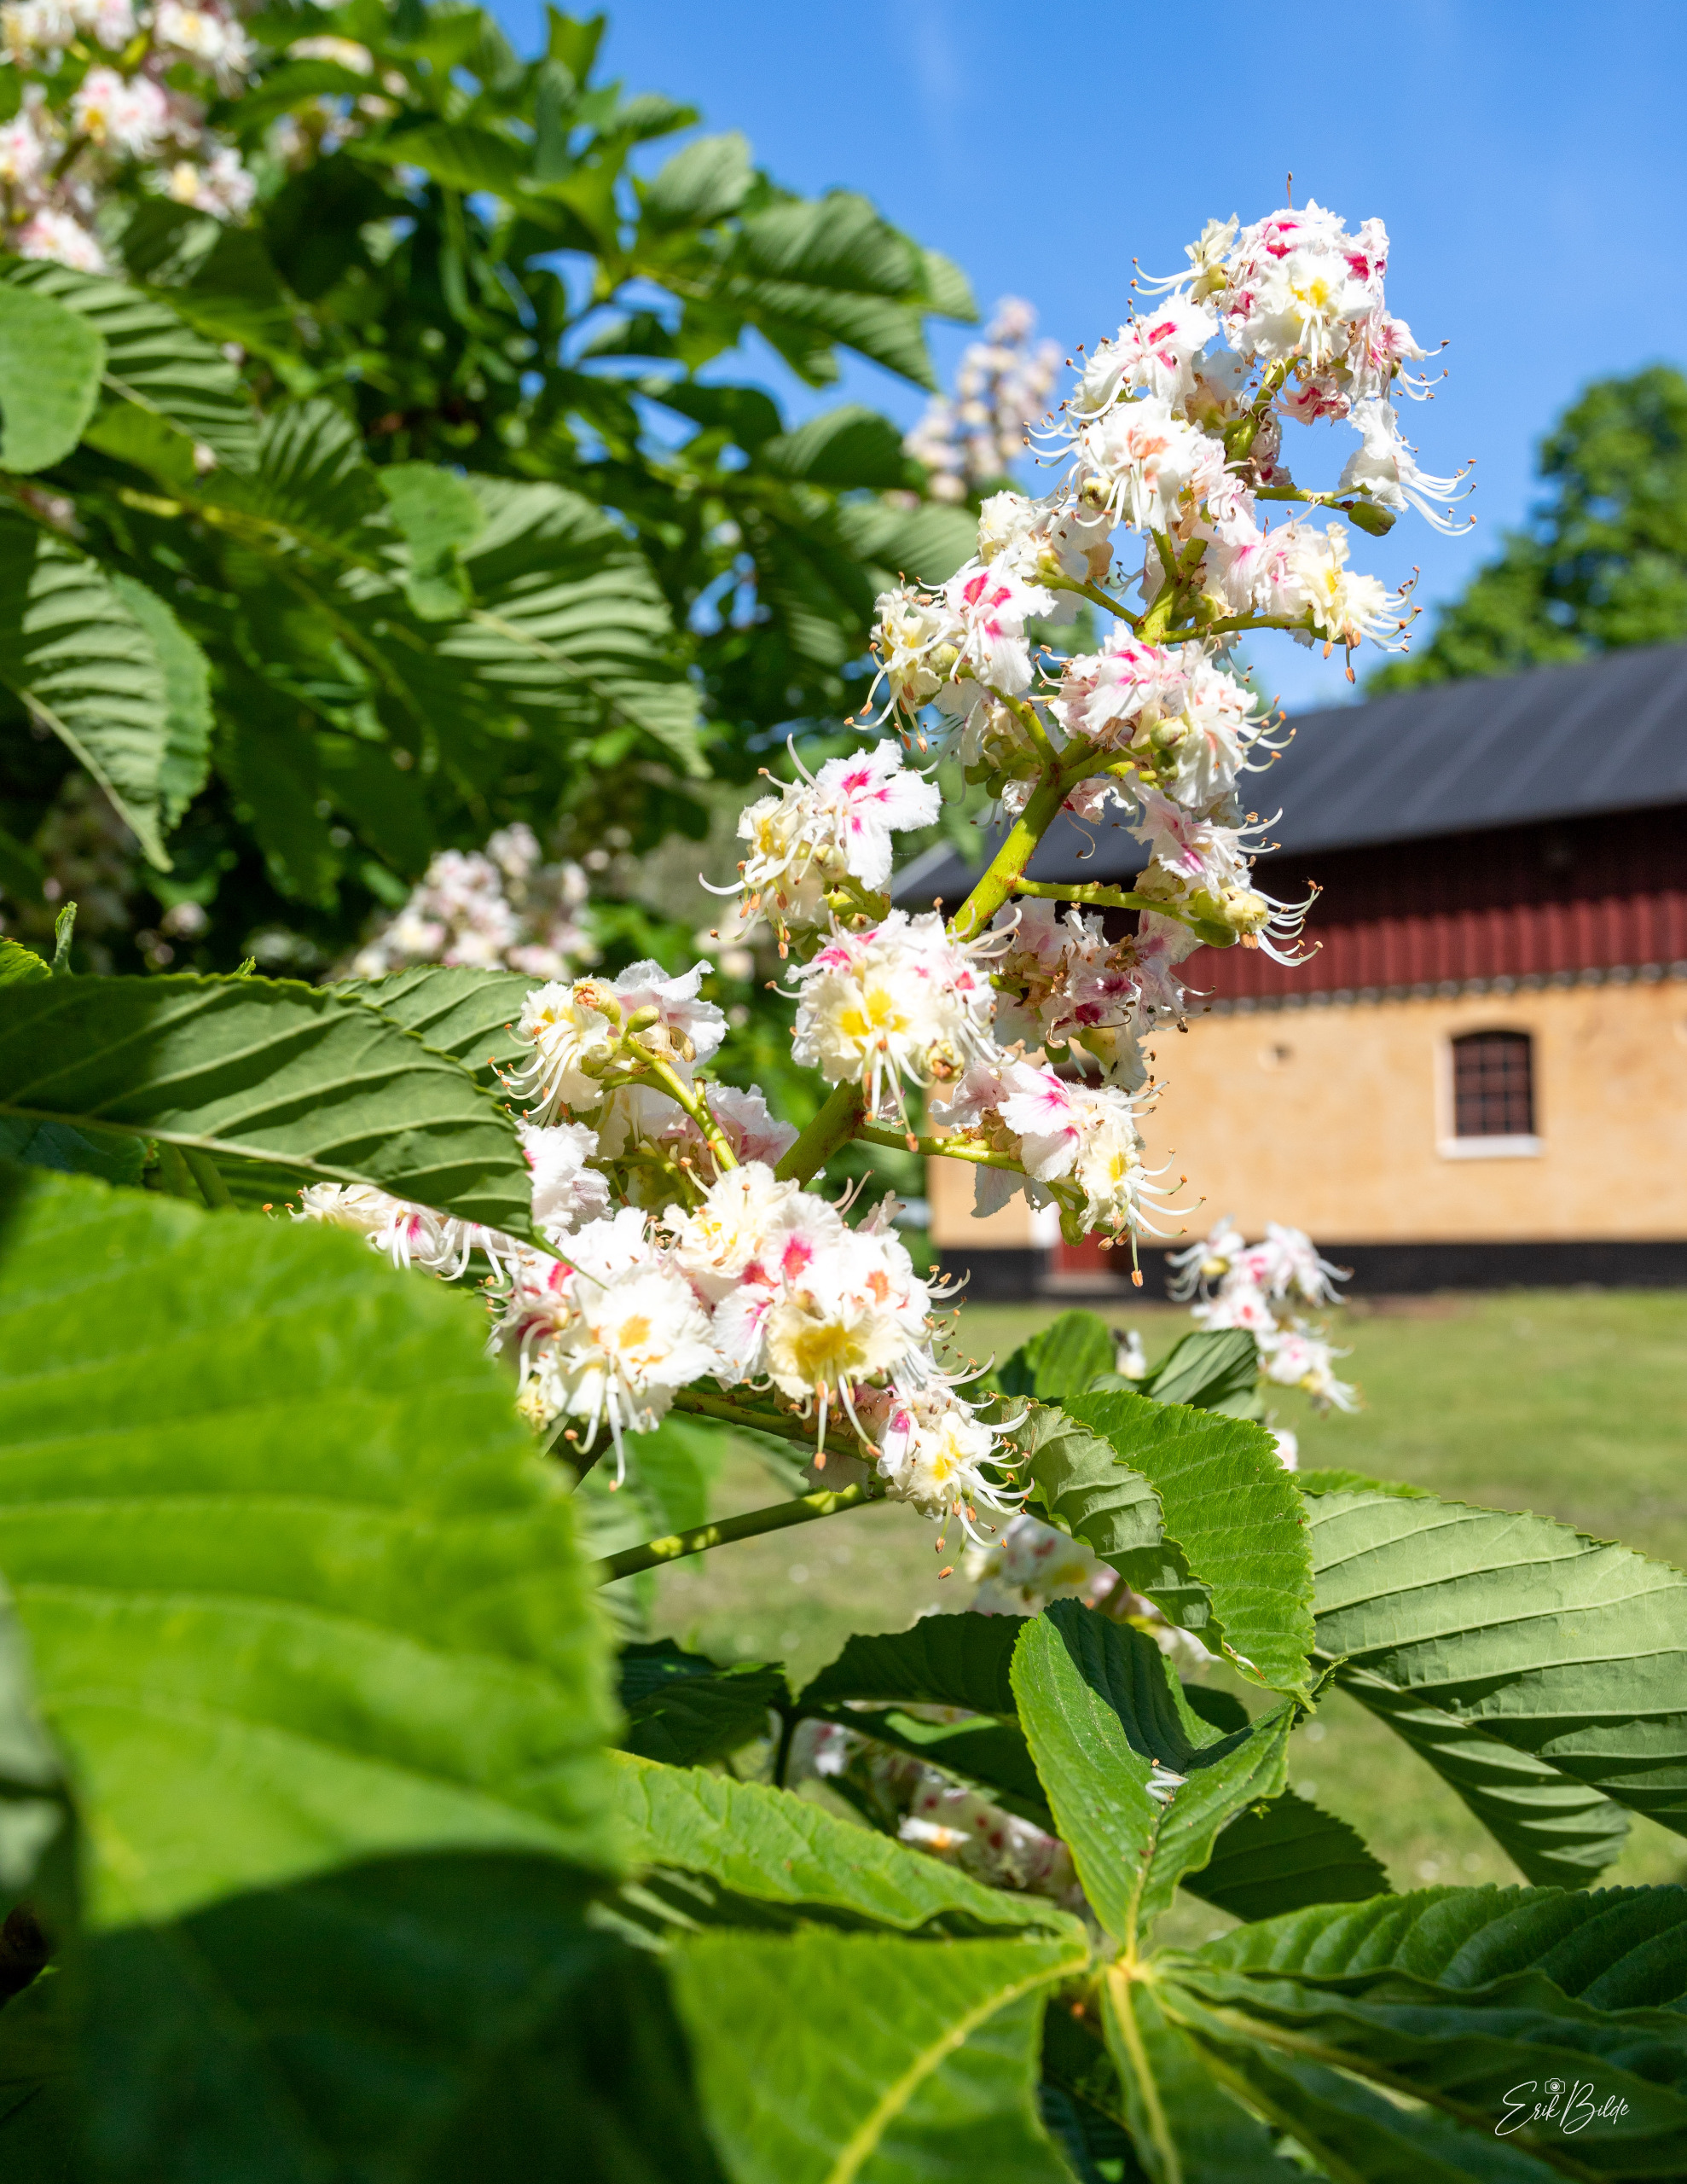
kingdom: Plantae
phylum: Tracheophyta
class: Magnoliopsida
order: Sapindales
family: Sapindaceae
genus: Aesculus
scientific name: Aesculus hippocastanum
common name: Hestekastanie
